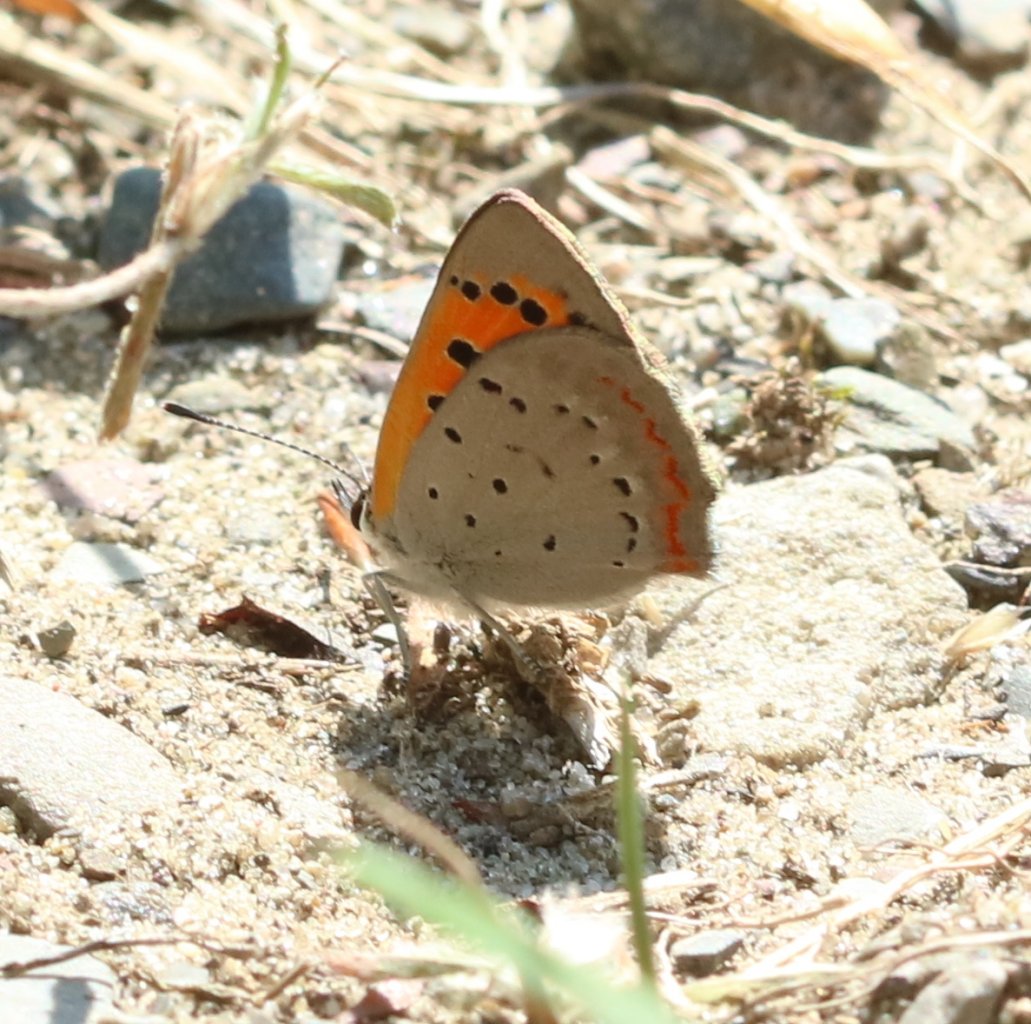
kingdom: Animalia
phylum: Arthropoda
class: Insecta
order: Lepidoptera
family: Lycaenidae
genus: Lycaena
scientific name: Lycaena phlaeas
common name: American Copper
